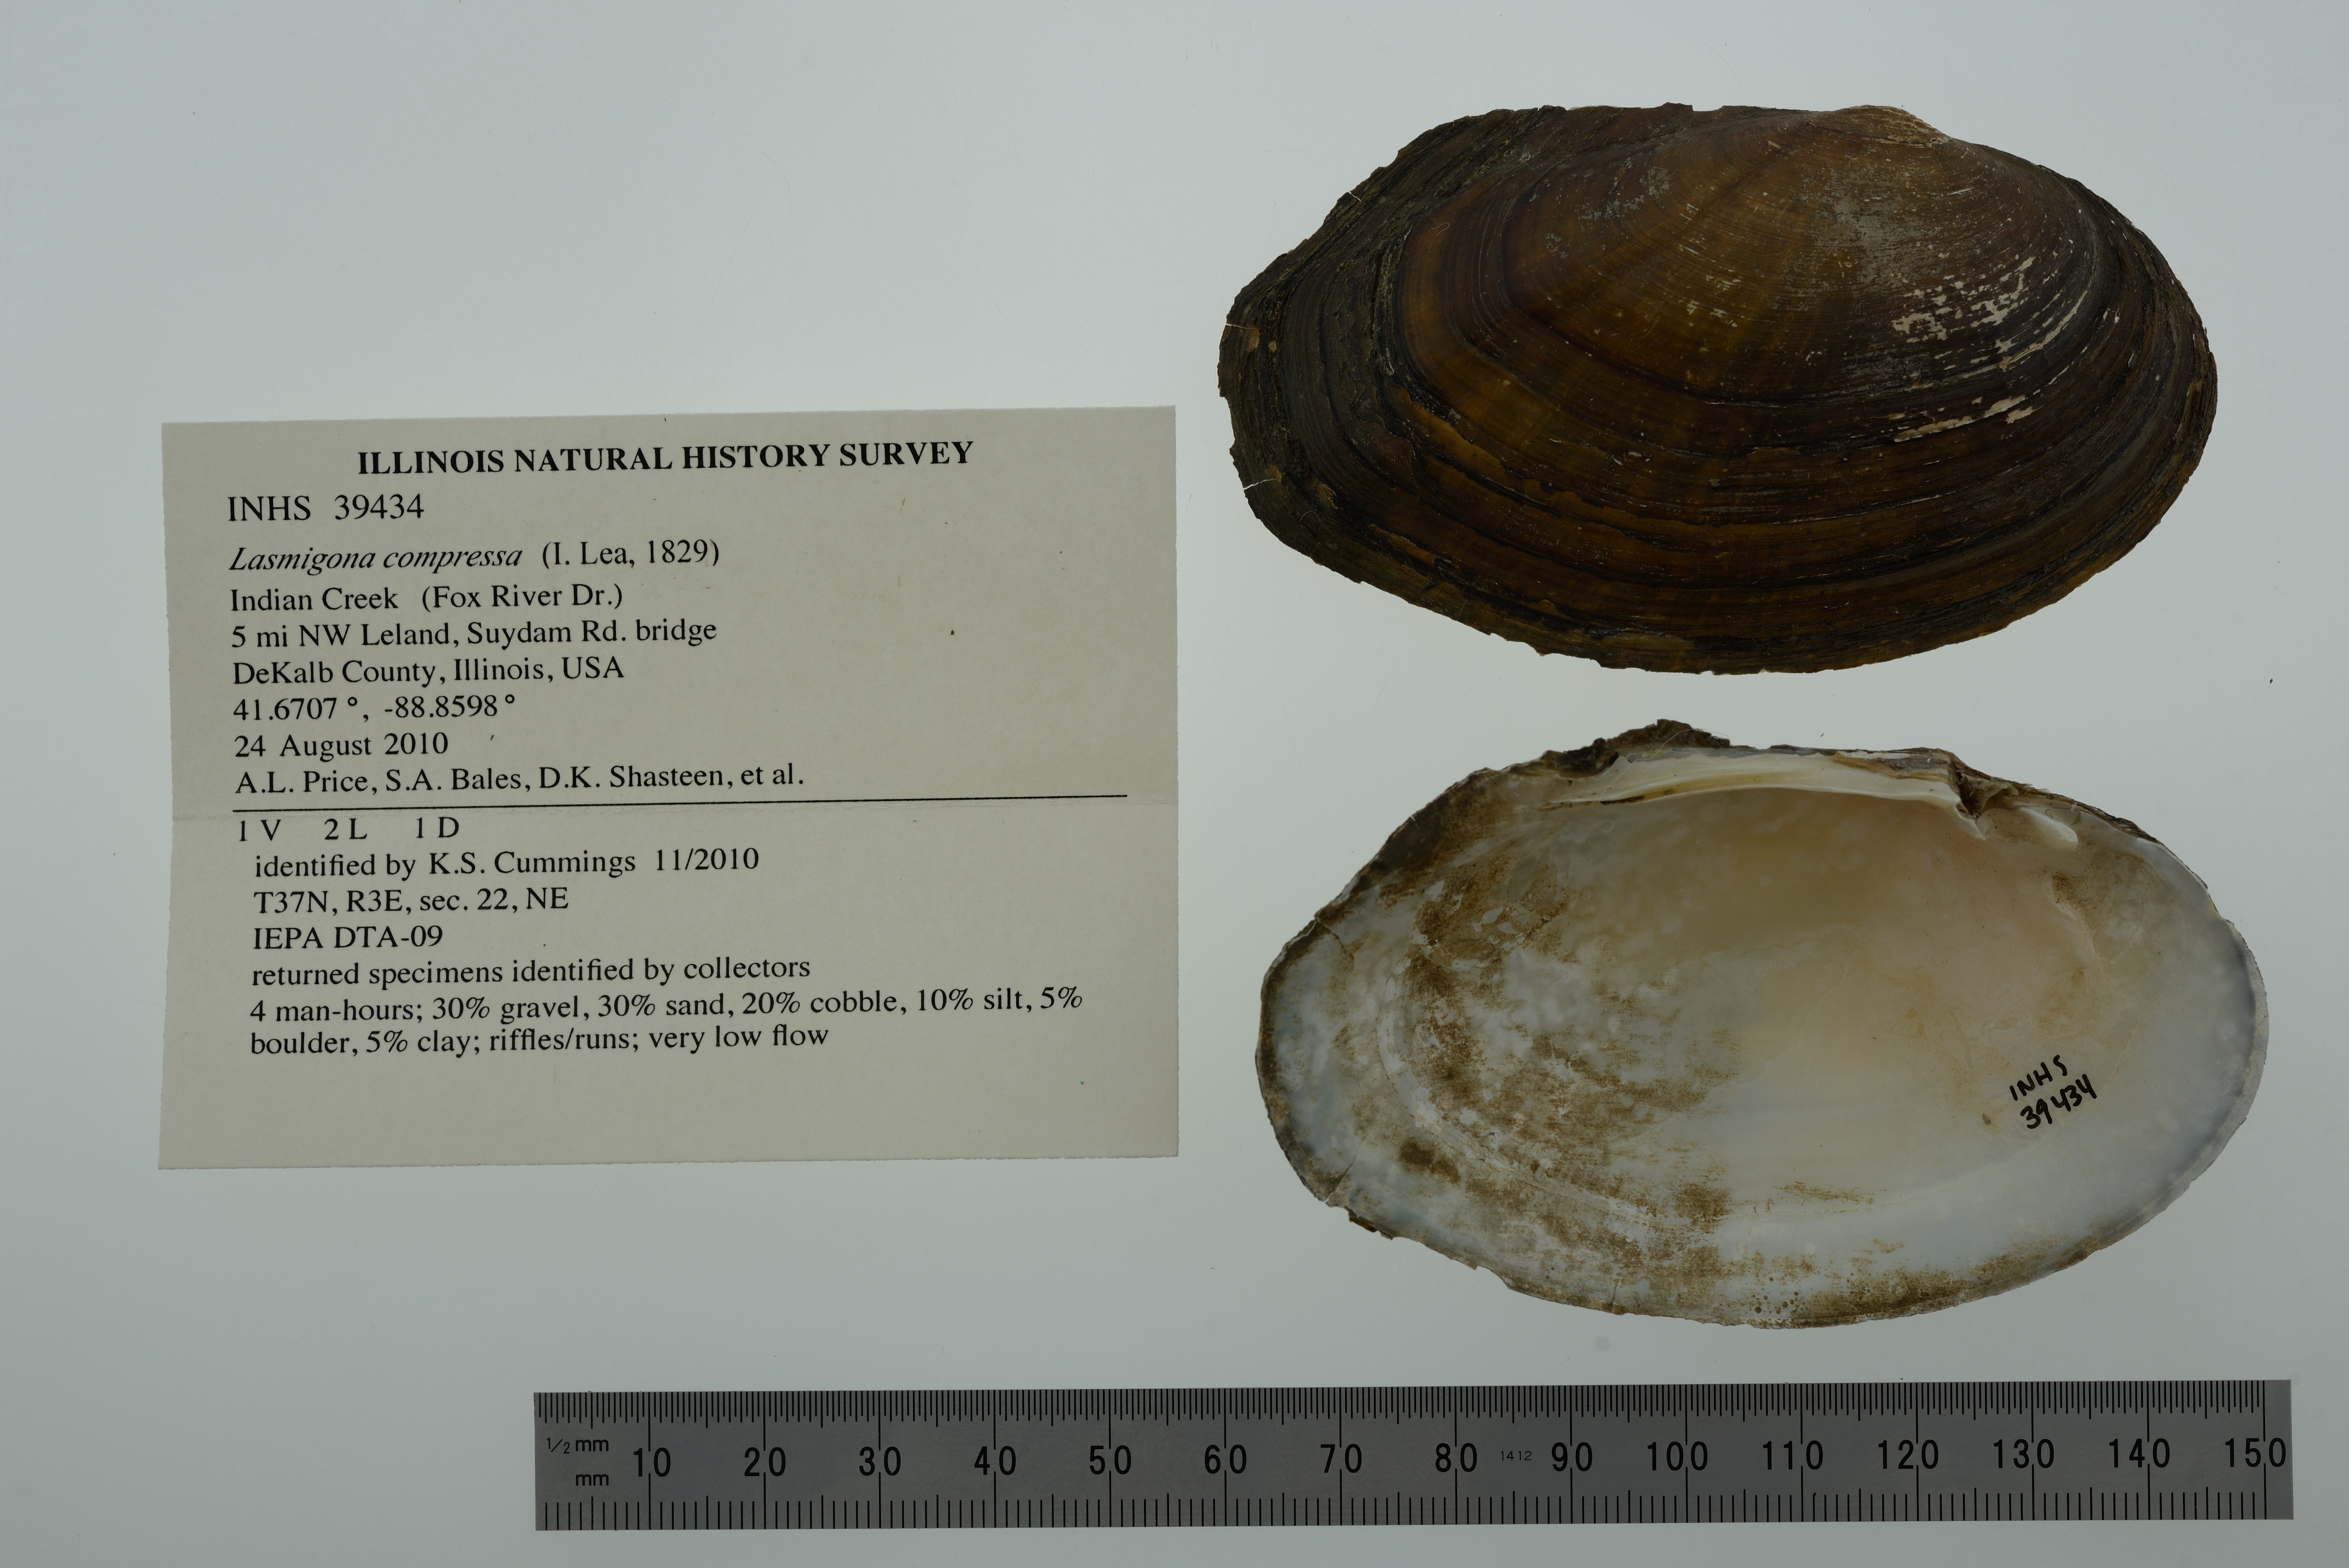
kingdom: Animalia
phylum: Mollusca
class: Bivalvia
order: Unionida
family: Unionidae
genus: Lasmigona
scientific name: Lasmigona compressa
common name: Creek heelsplitter
